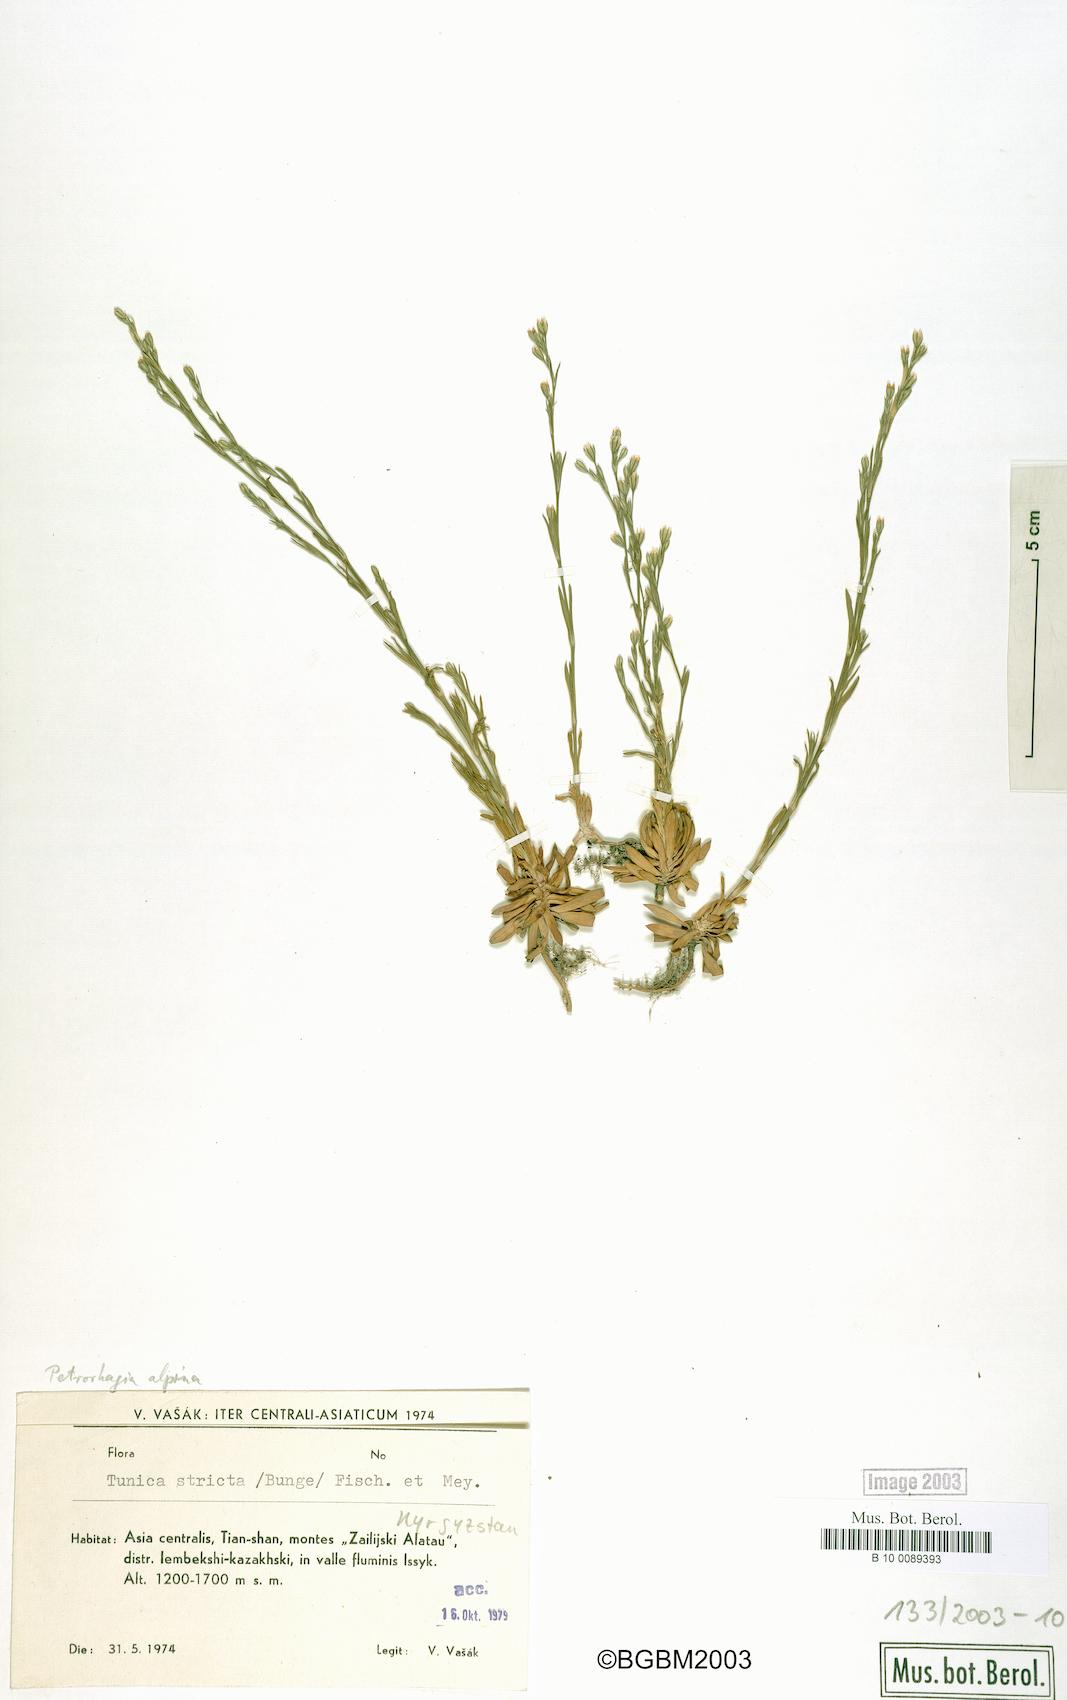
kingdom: Plantae
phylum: Tracheophyta
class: Magnoliopsida
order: Caryophyllales
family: Caryophyllaceae
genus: Petrorhagia
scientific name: Petrorhagia alpina
